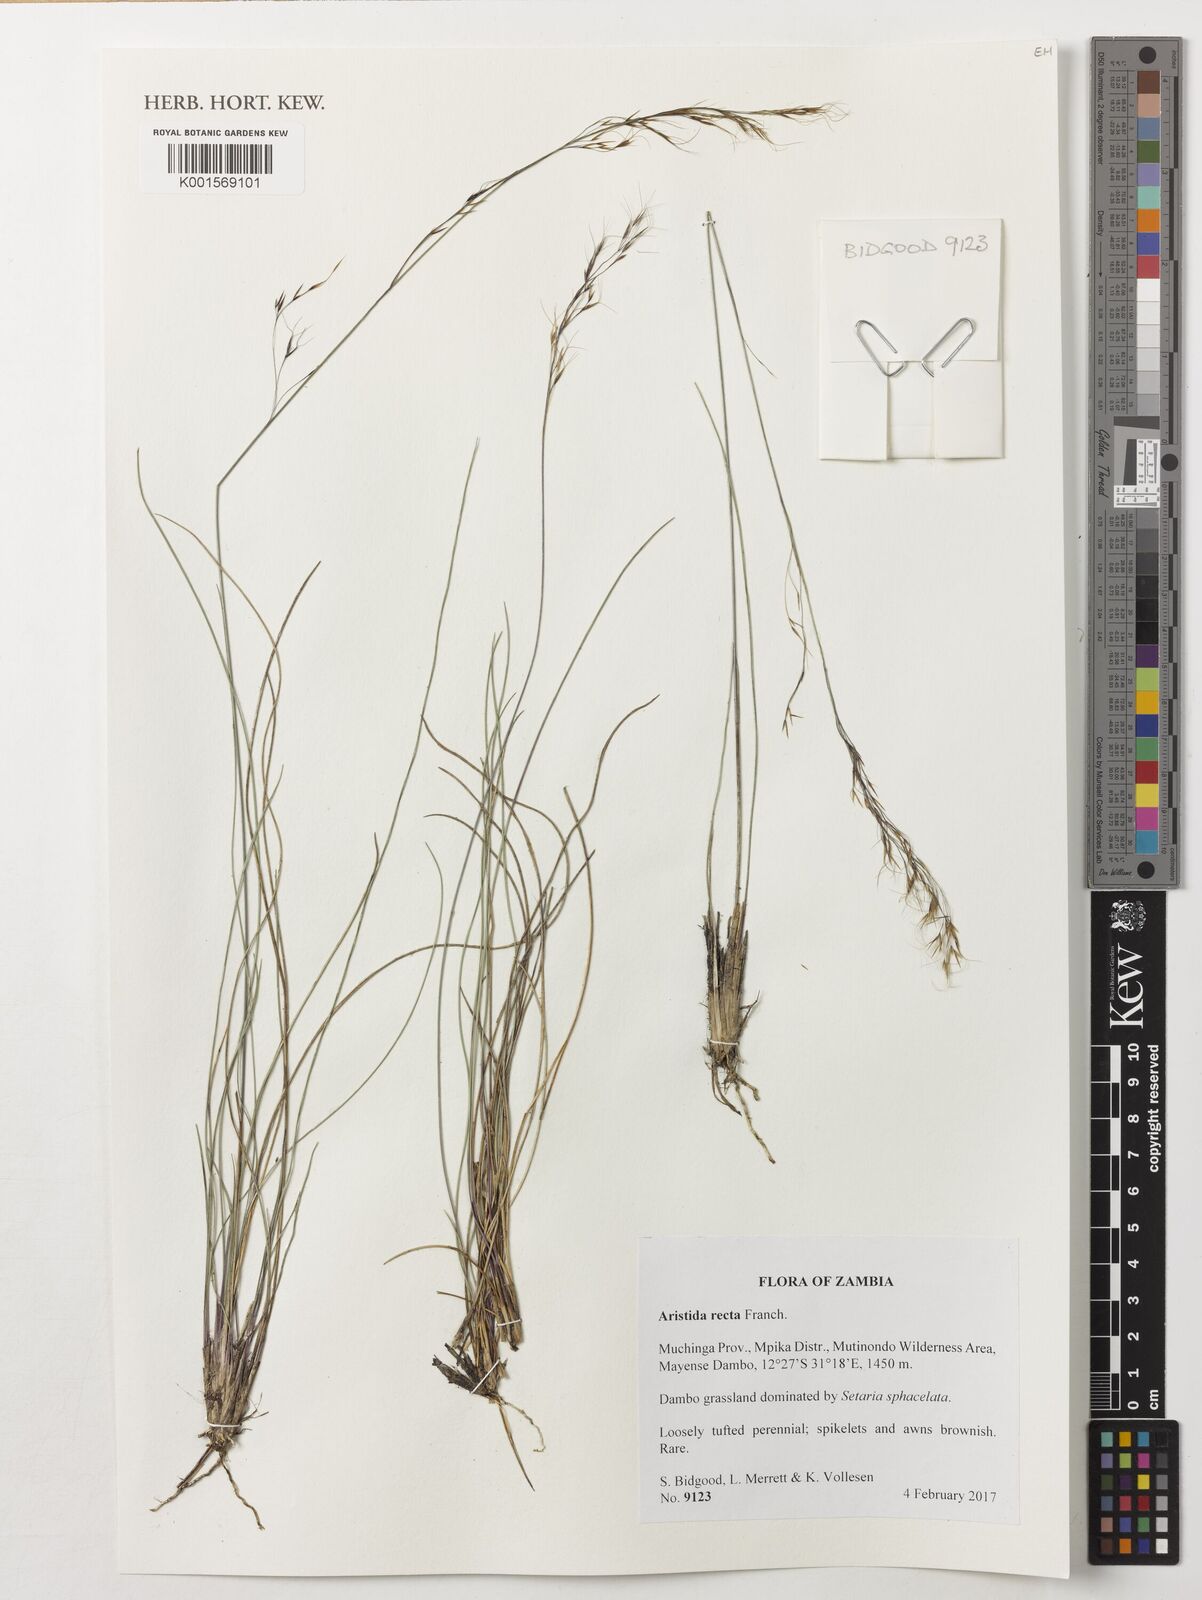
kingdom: Plantae
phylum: Tracheophyta
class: Liliopsida
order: Poales
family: Poaceae
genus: Aristida
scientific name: Aristida recta
